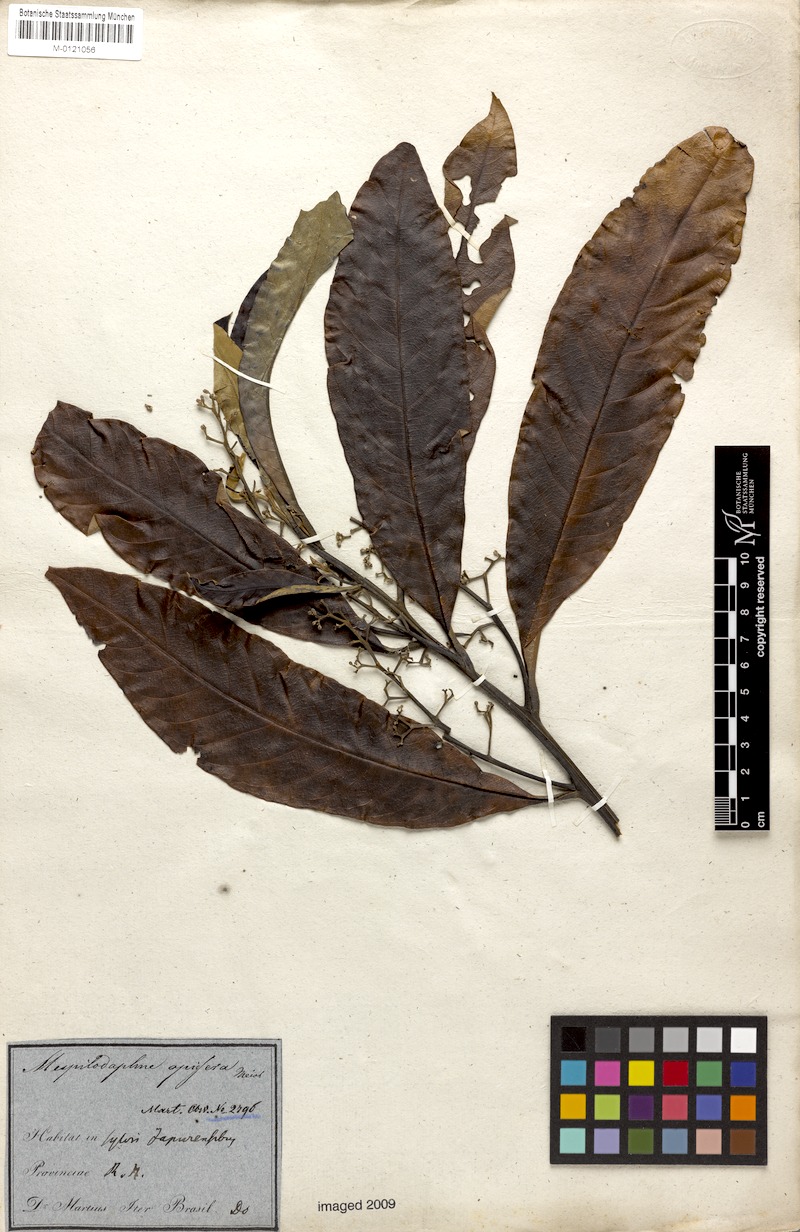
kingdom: Plantae
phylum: Tracheophyta
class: Magnoliopsida
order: Laurales
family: Lauraceae
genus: Mespilodaphne
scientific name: Mespilodaphne opifera
